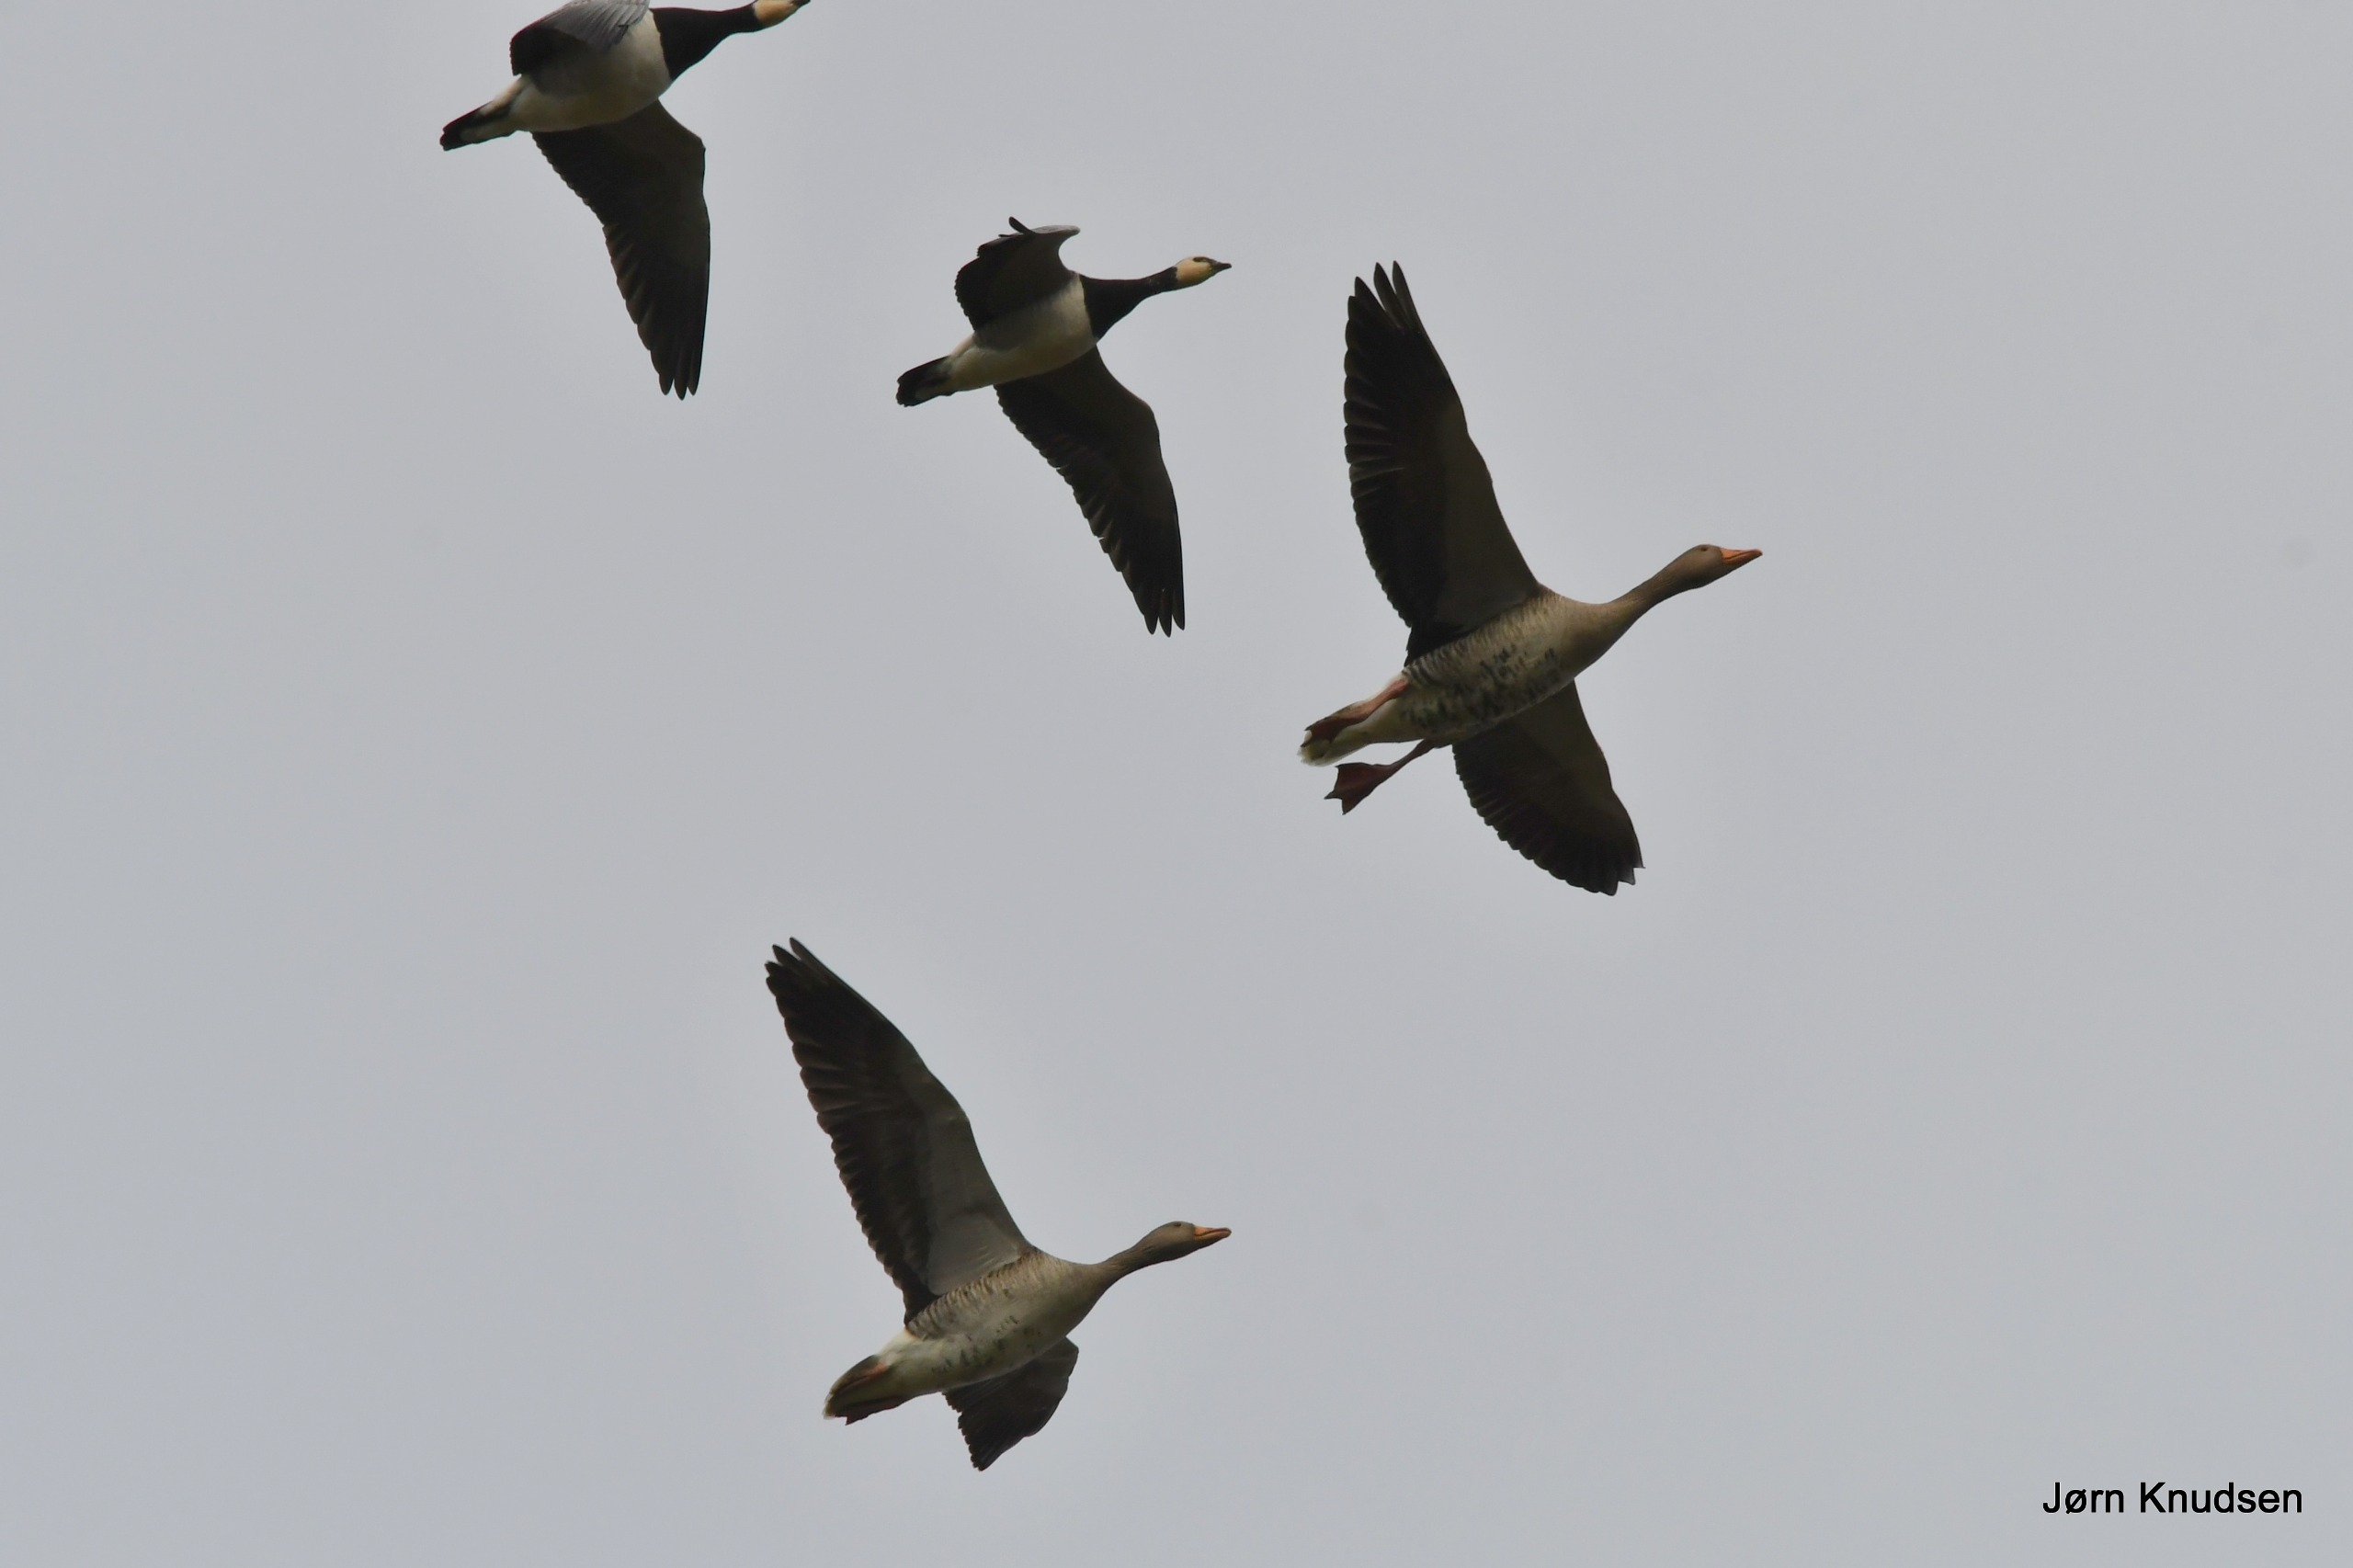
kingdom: Animalia
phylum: Chordata
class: Aves
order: Anseriformes
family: Anatidae
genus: Anser
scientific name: Anser anser
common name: Grågås
